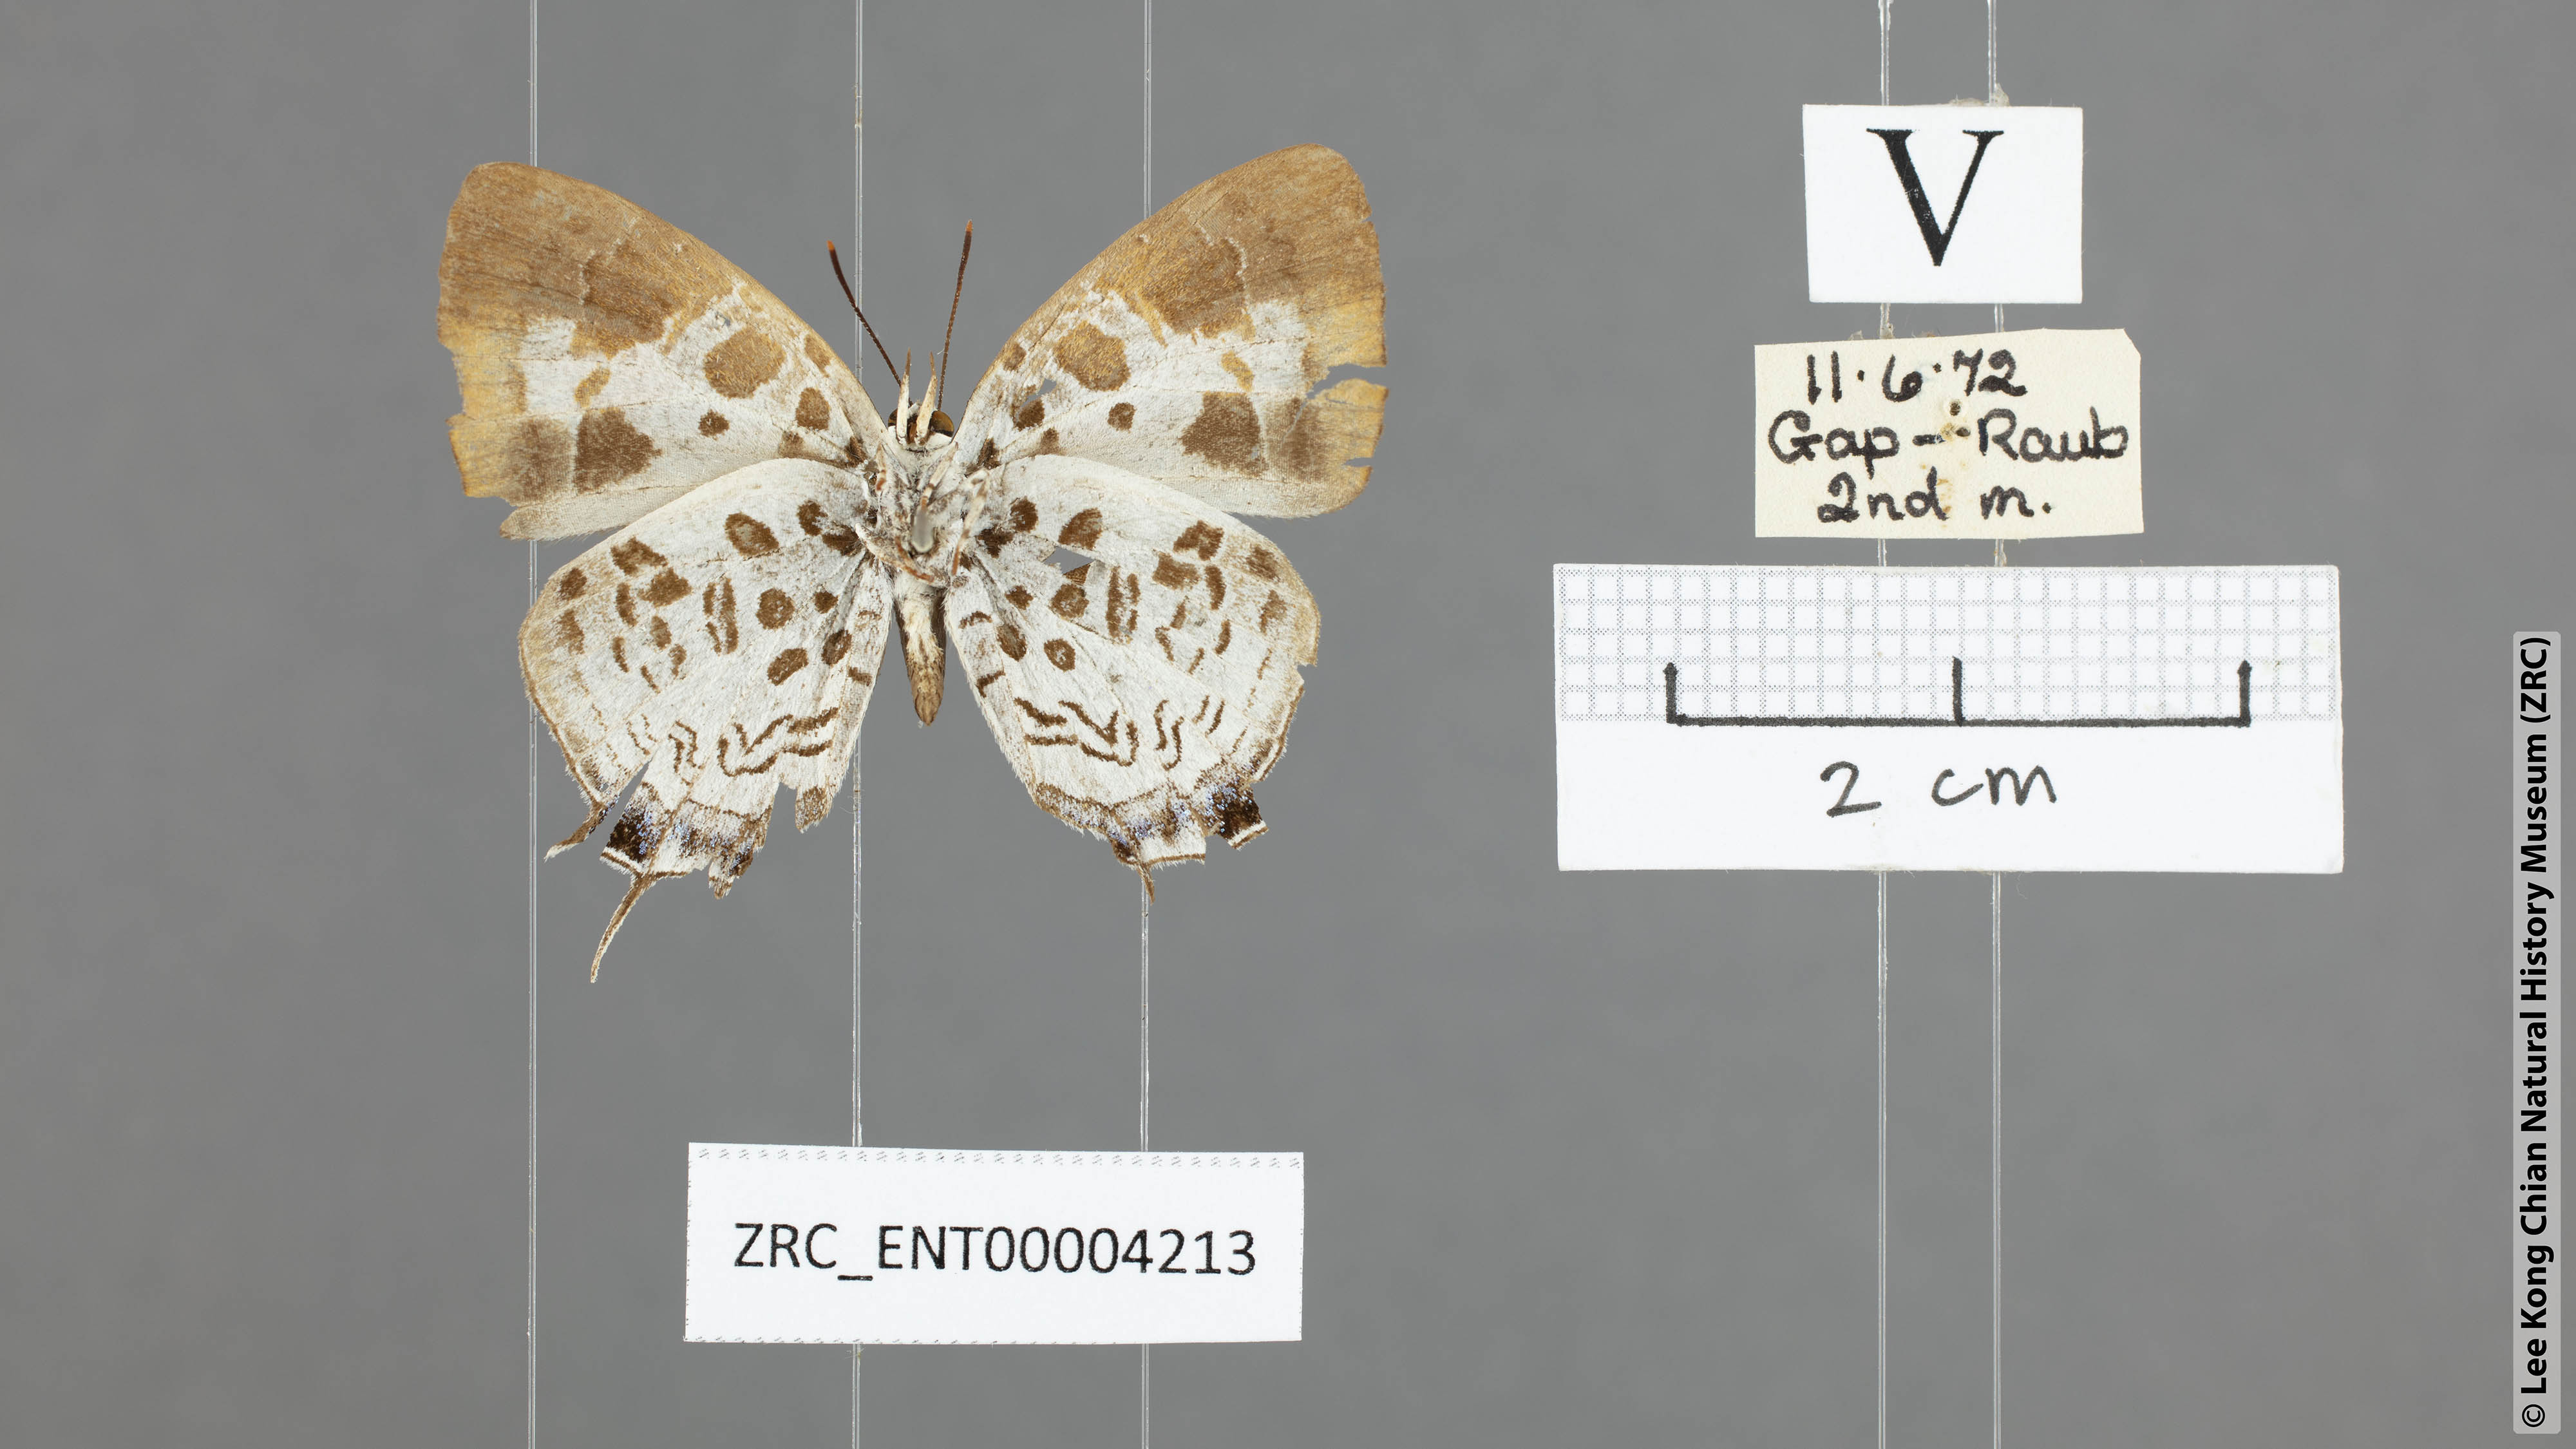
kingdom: Animalia
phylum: Arthropoda
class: Insecta
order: Lepidoptera
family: Lycaenidae
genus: Drupadia
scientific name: Drupadia estella
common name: White-craved posy
